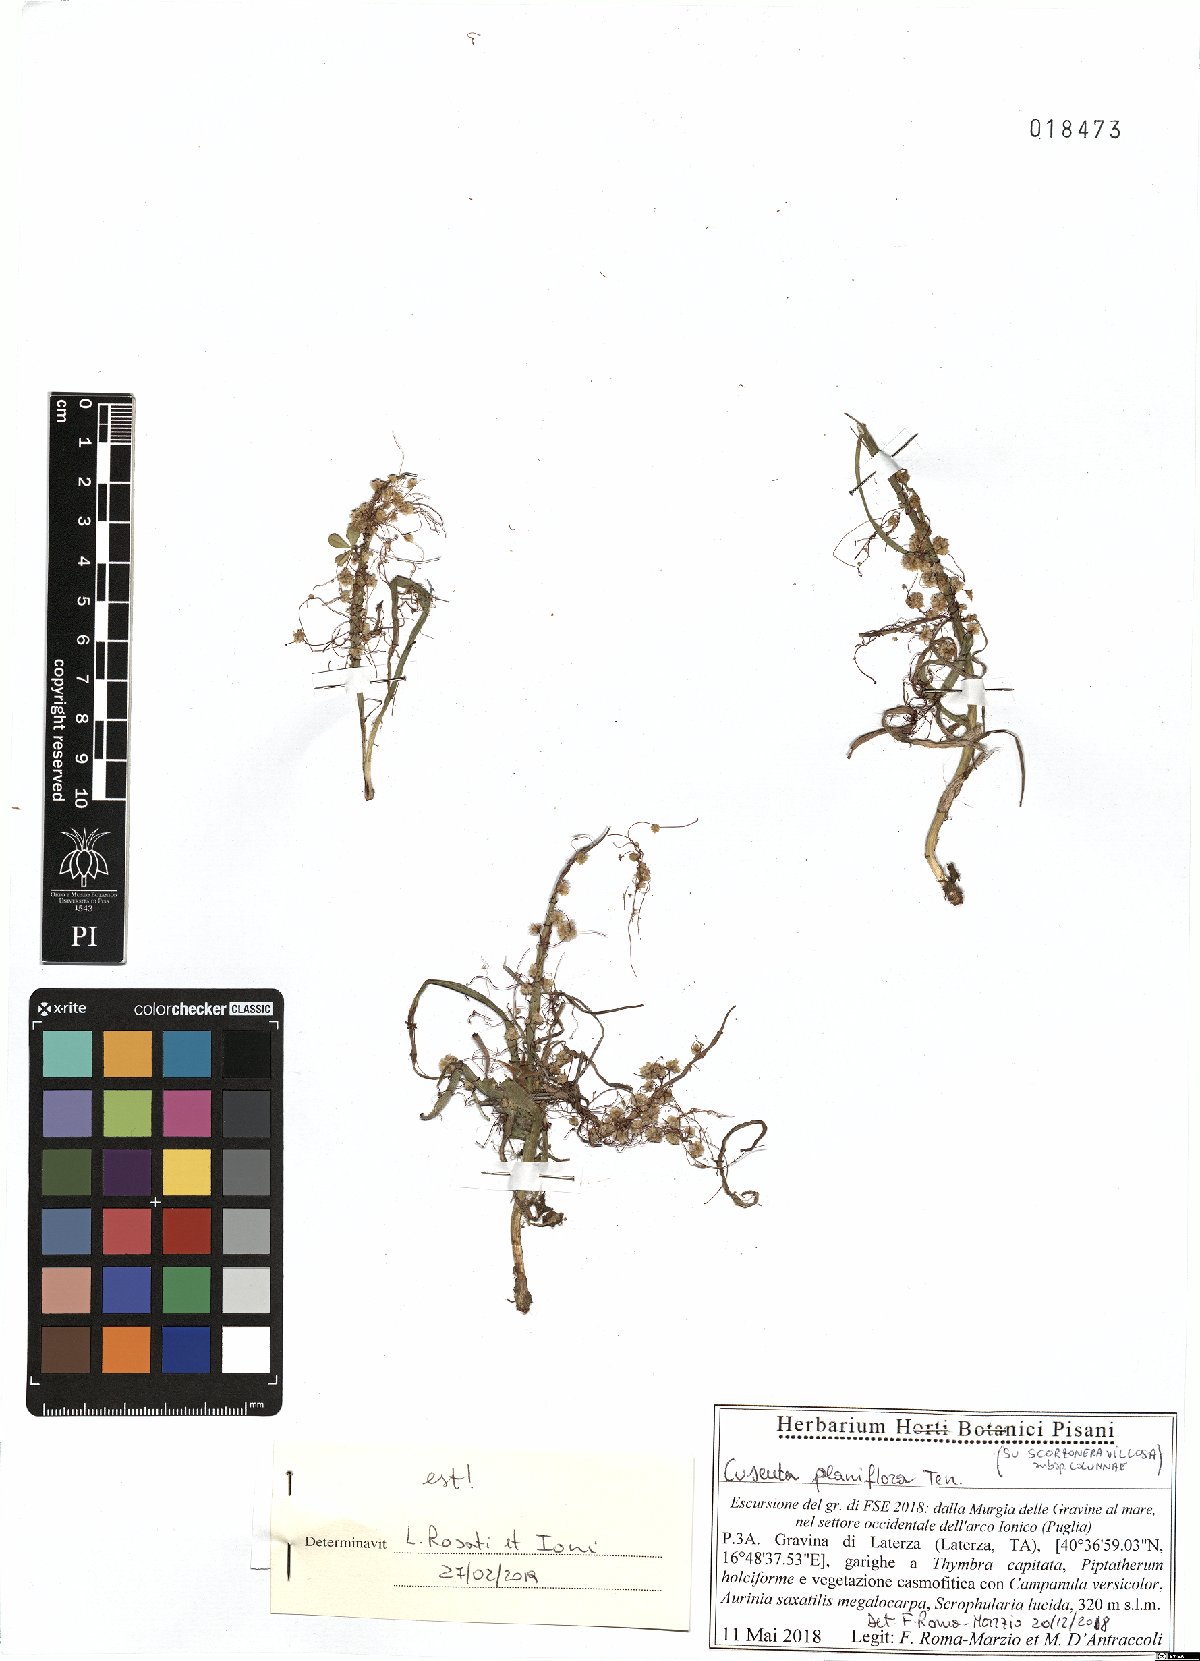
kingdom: Plantae
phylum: Tracheophyta
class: Magnoliopsida
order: Solanales
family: Convolvulaceae
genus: Cuscuta
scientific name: Cuscuta planiflora
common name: Small-seed alfalfa dodder
